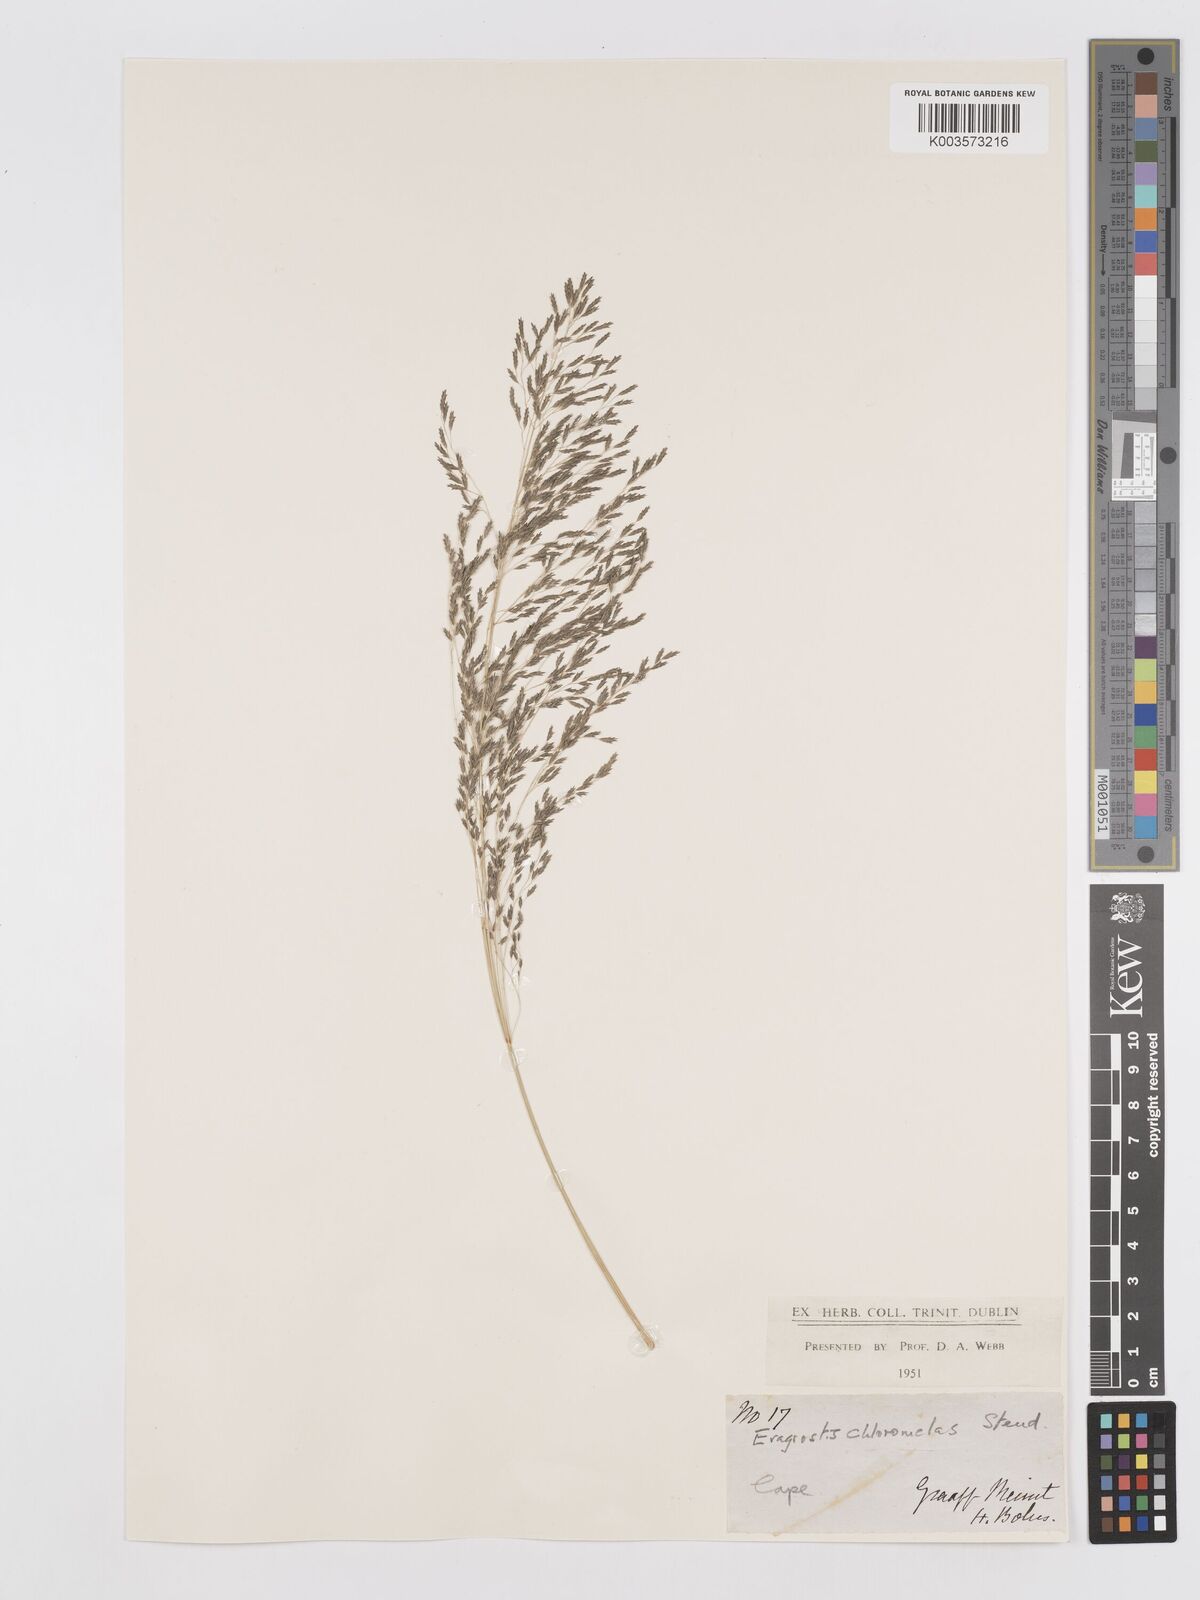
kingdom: Plantae
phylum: Tracheophyta
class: Liliopsida
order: Poales
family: Poaceae
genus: Eragrostis
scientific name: Eragrostis curvula
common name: African love-grass
